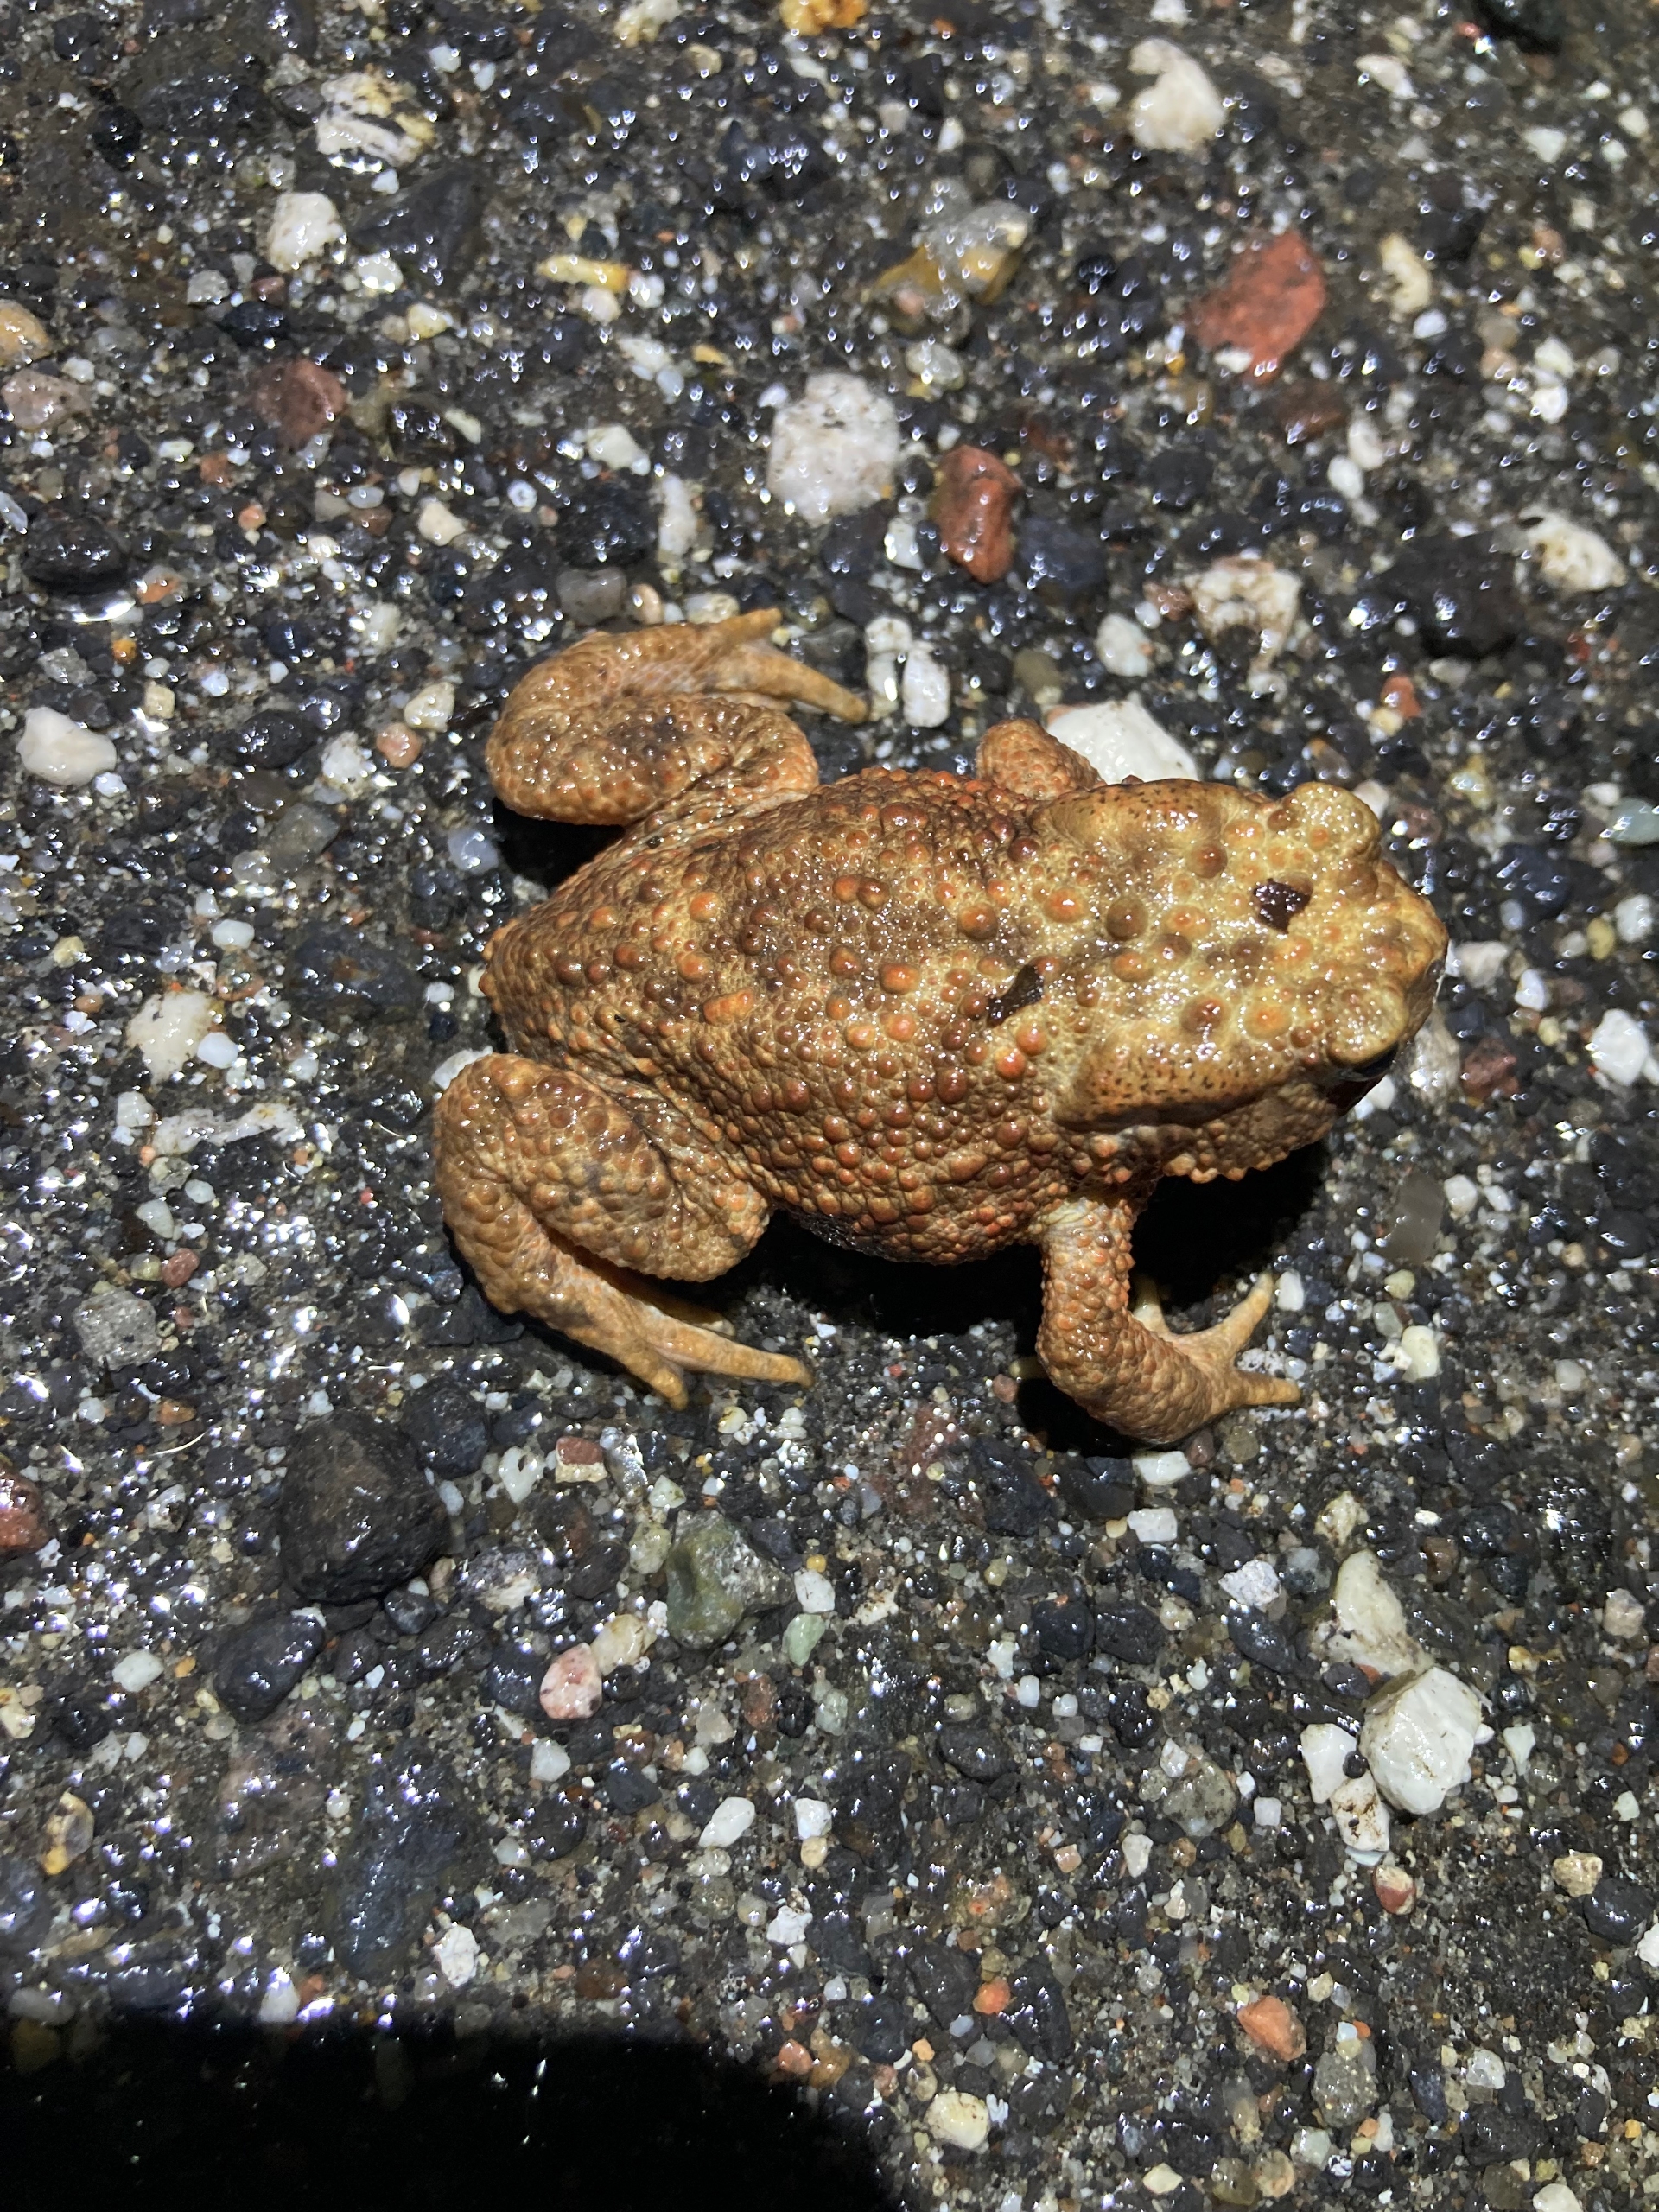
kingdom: Animalia
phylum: Chordata
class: Amphibia
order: Anura
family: Bufonidae
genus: Bufo
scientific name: Bufo bufo
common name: Skrubtudse
